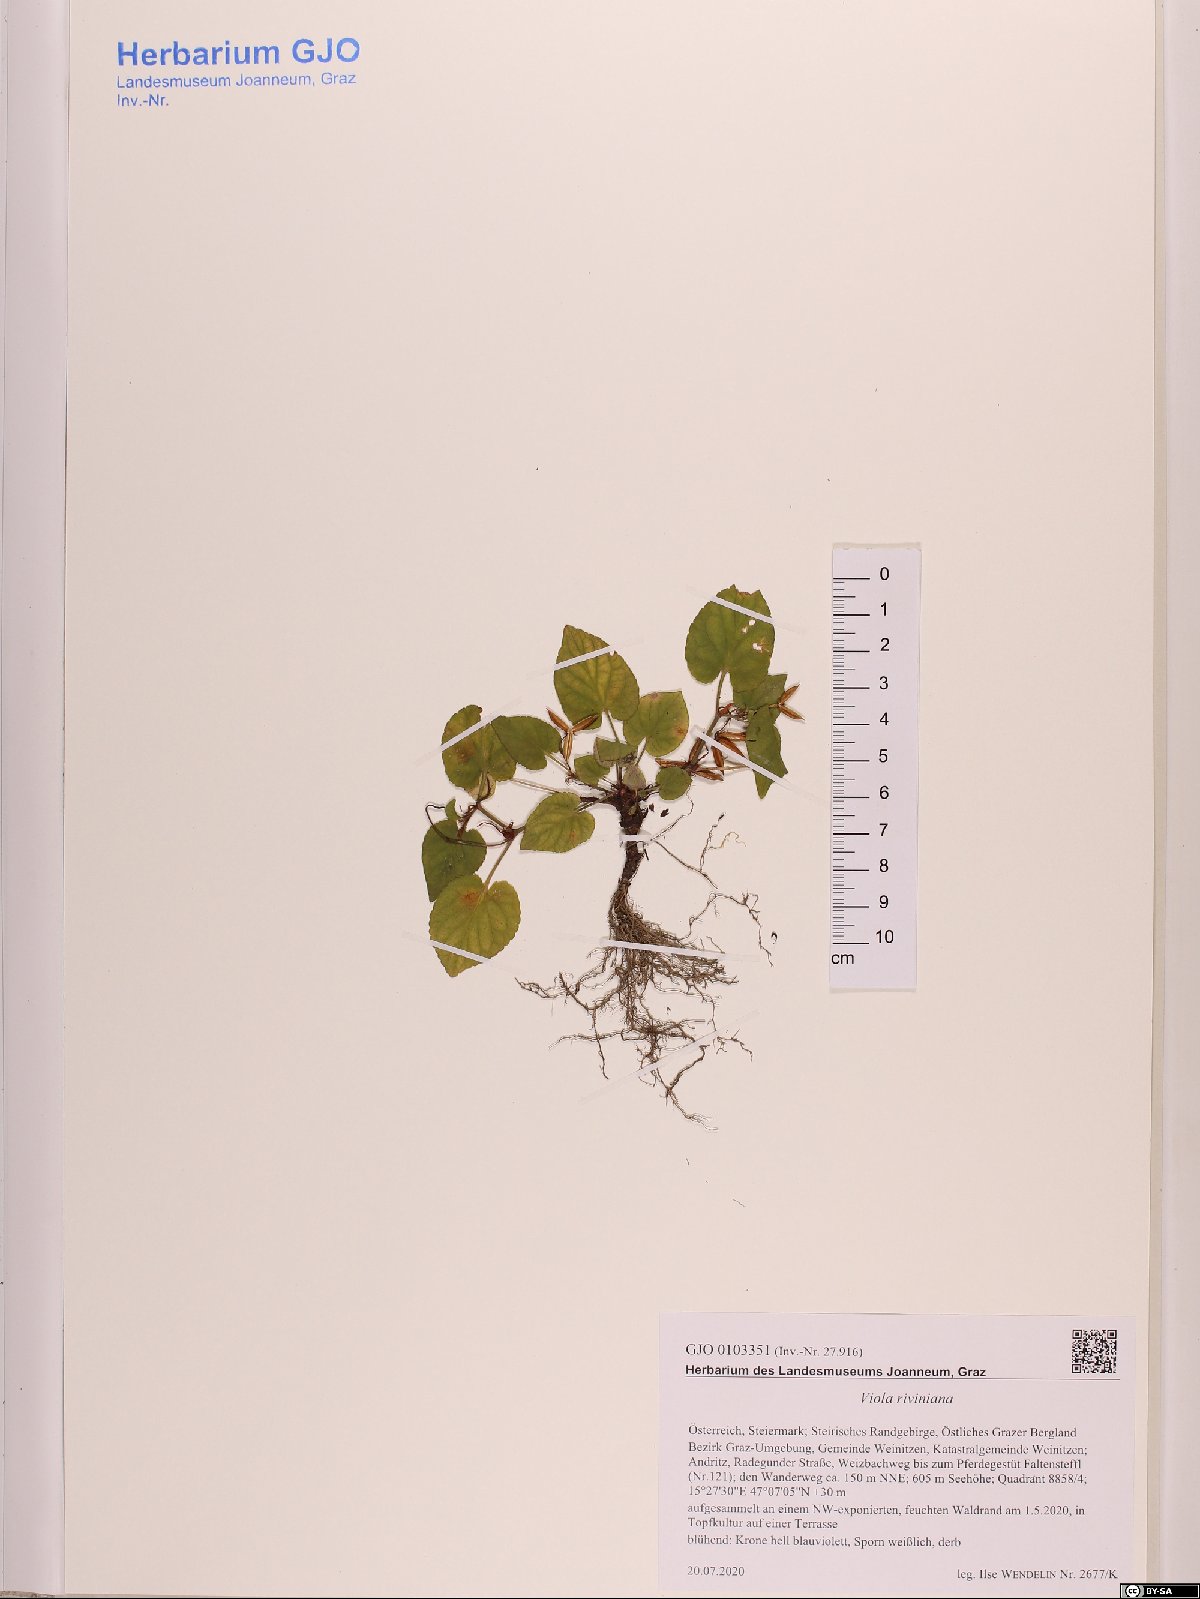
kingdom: Plantae
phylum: Tracheophyta
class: Magnoliopsida
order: Malpighiales
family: Violaceae
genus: Viola
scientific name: Viola riviniana
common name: Common dog-violet
